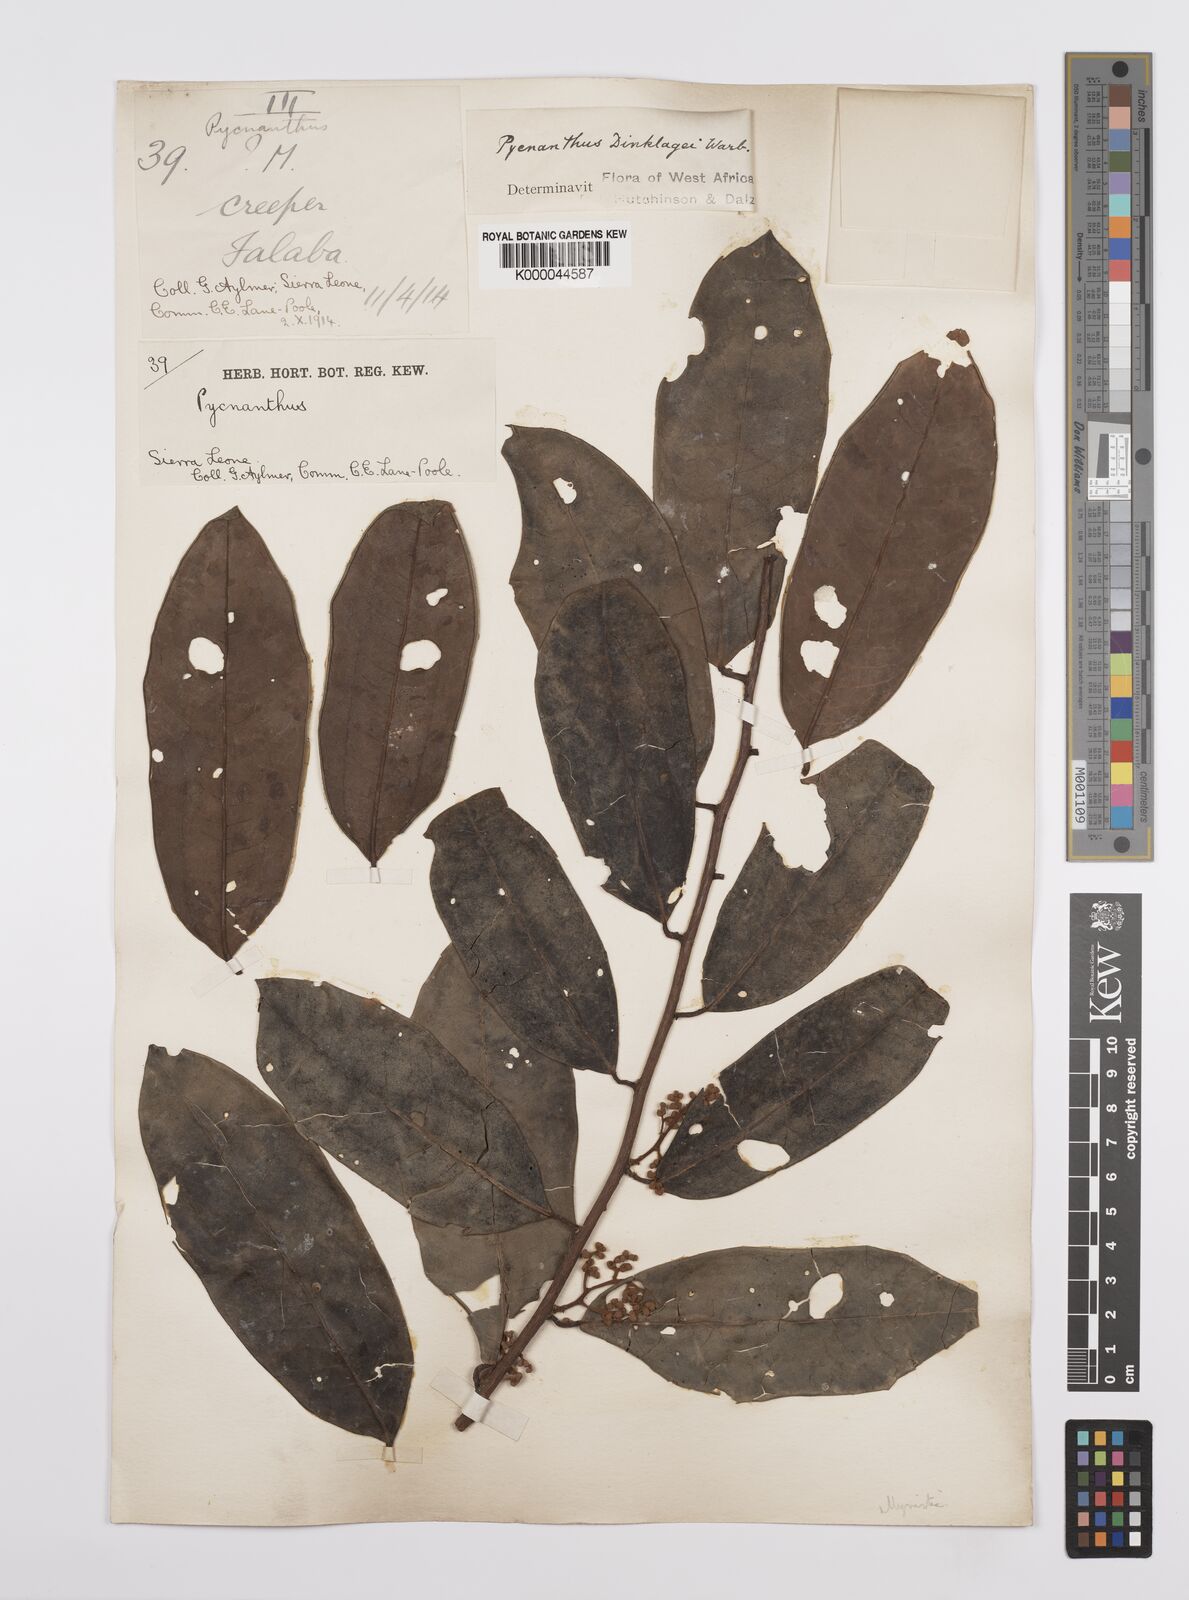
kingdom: Plantae
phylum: Tracheophyta
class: Magnoliopsida
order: Magnoliales
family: Myristicaceae
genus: Pycnanthus
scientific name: Pycnanthus dinklagei
